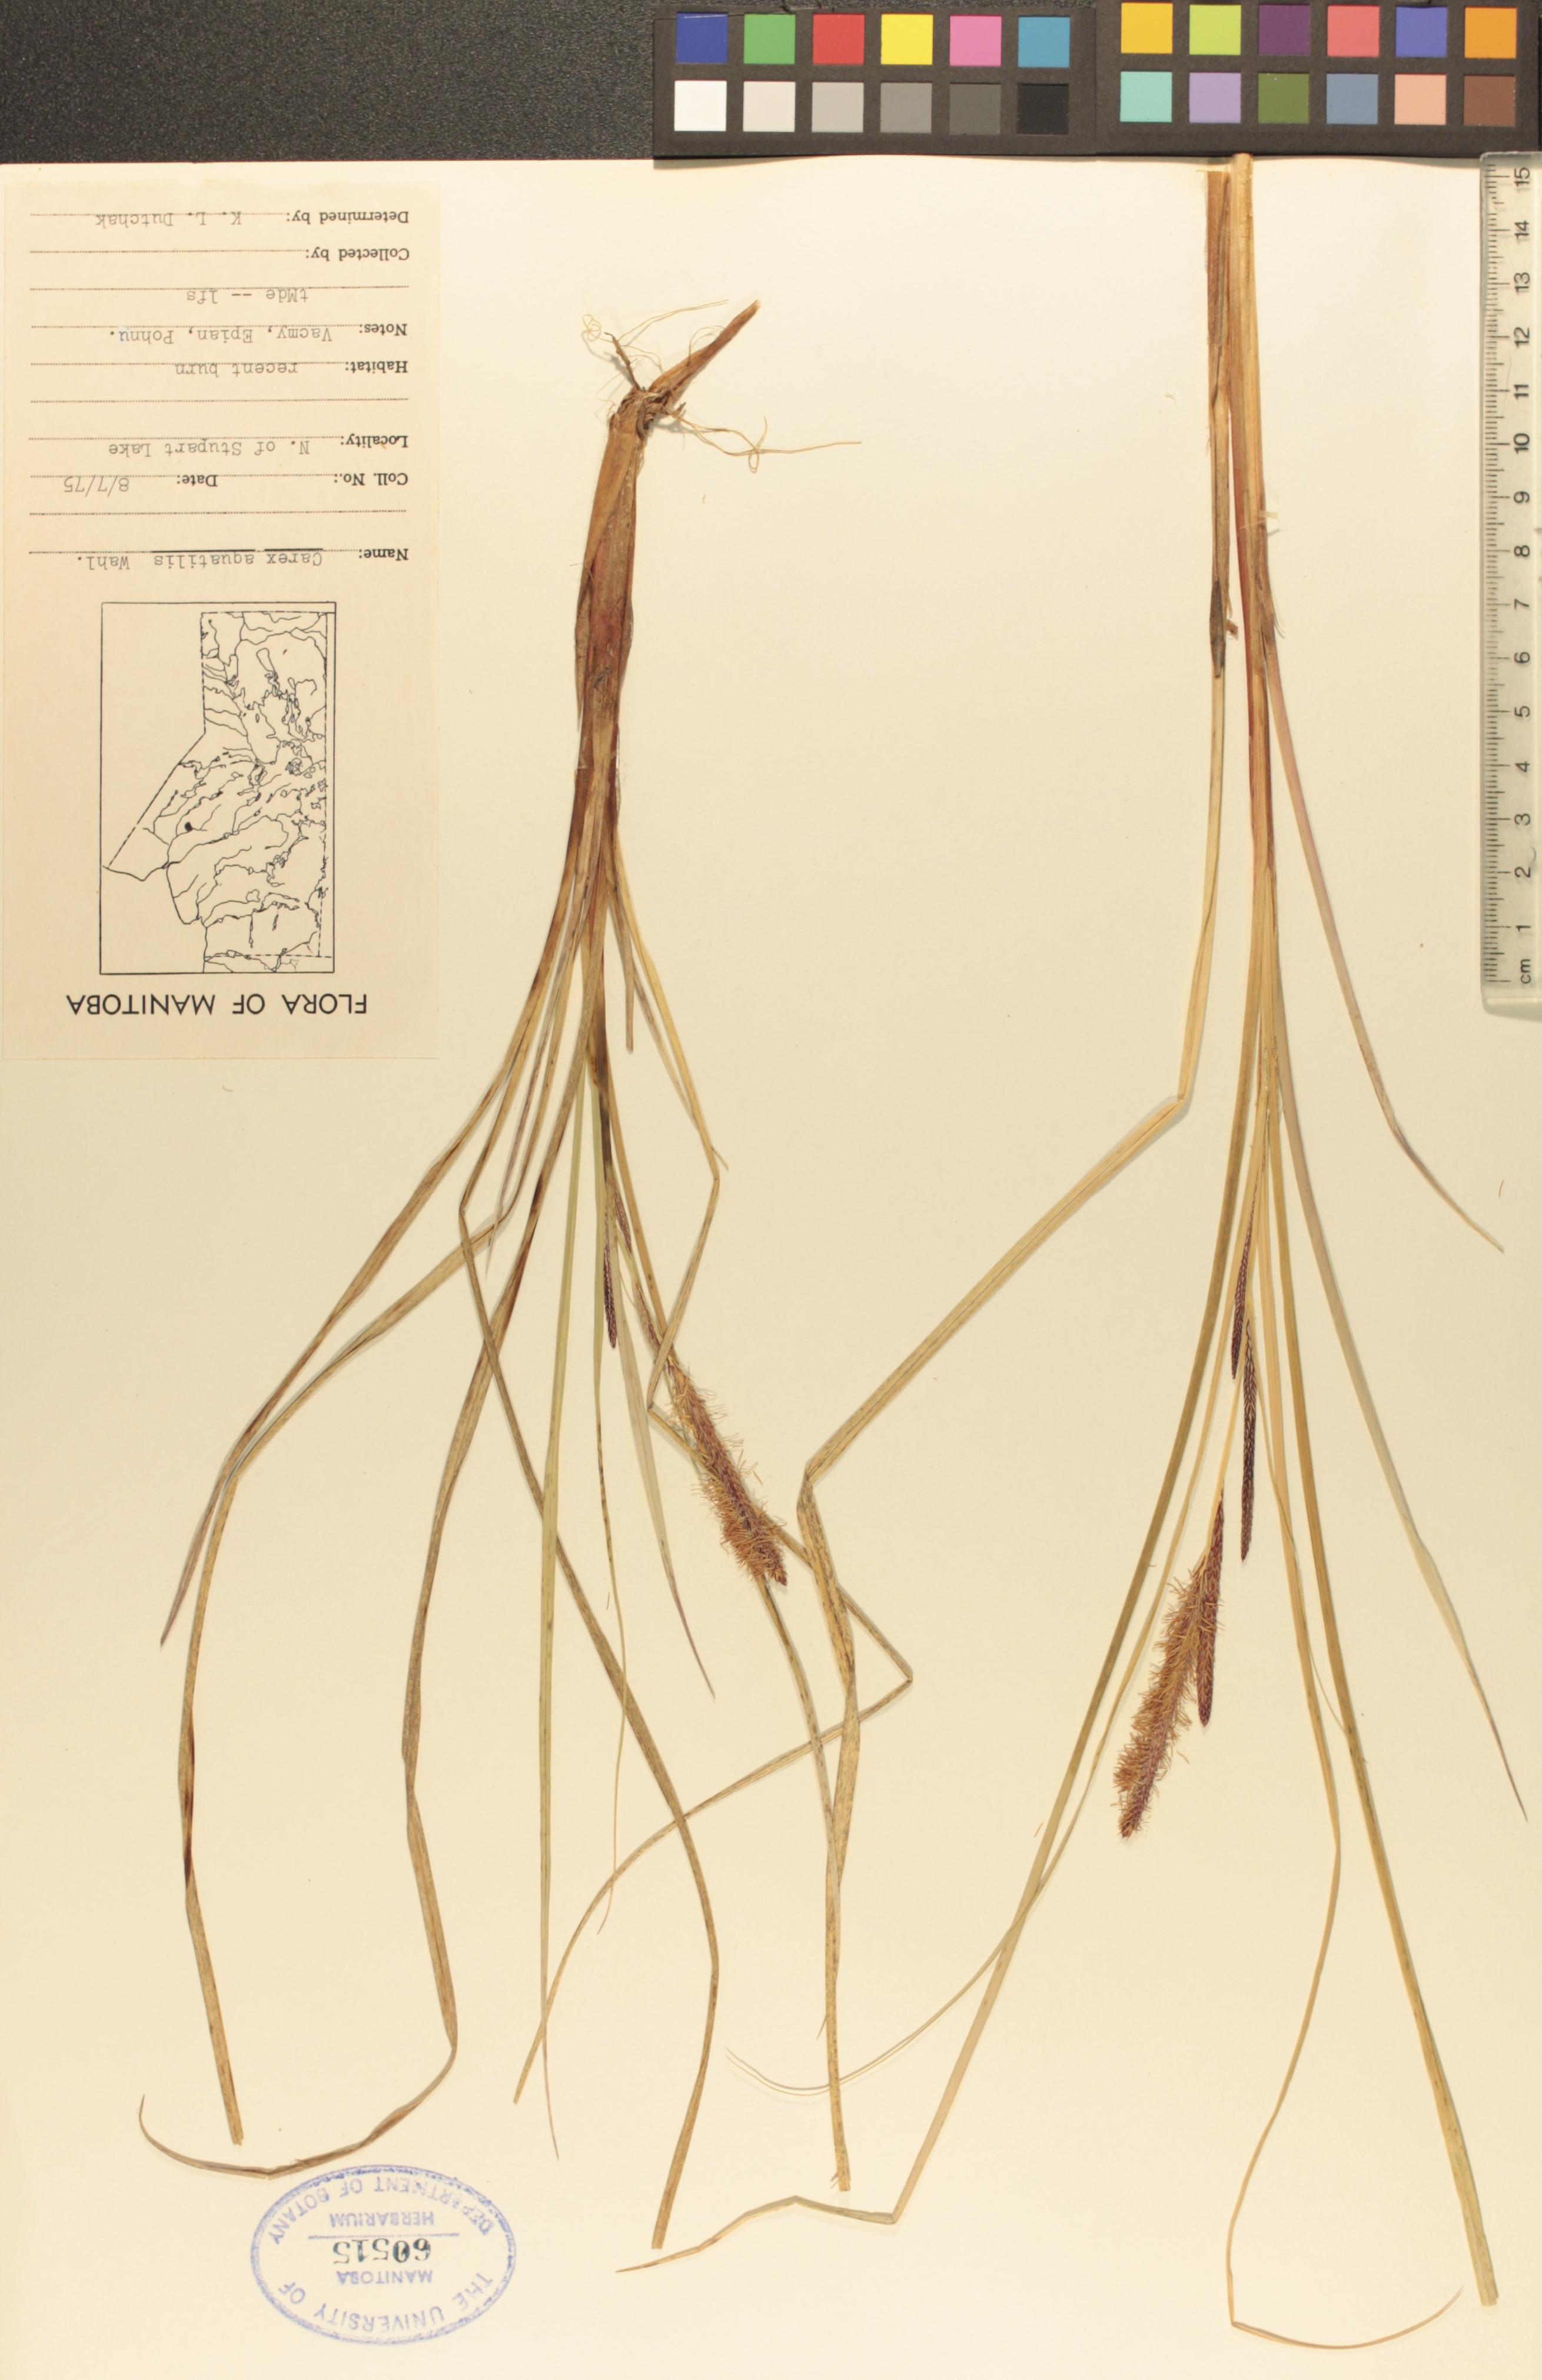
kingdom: Plantae
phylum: Tracheophyta
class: Liliopsida
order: Poales
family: Cyperaceae
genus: Carex
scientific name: Carex aquatilis
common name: Water sedge
